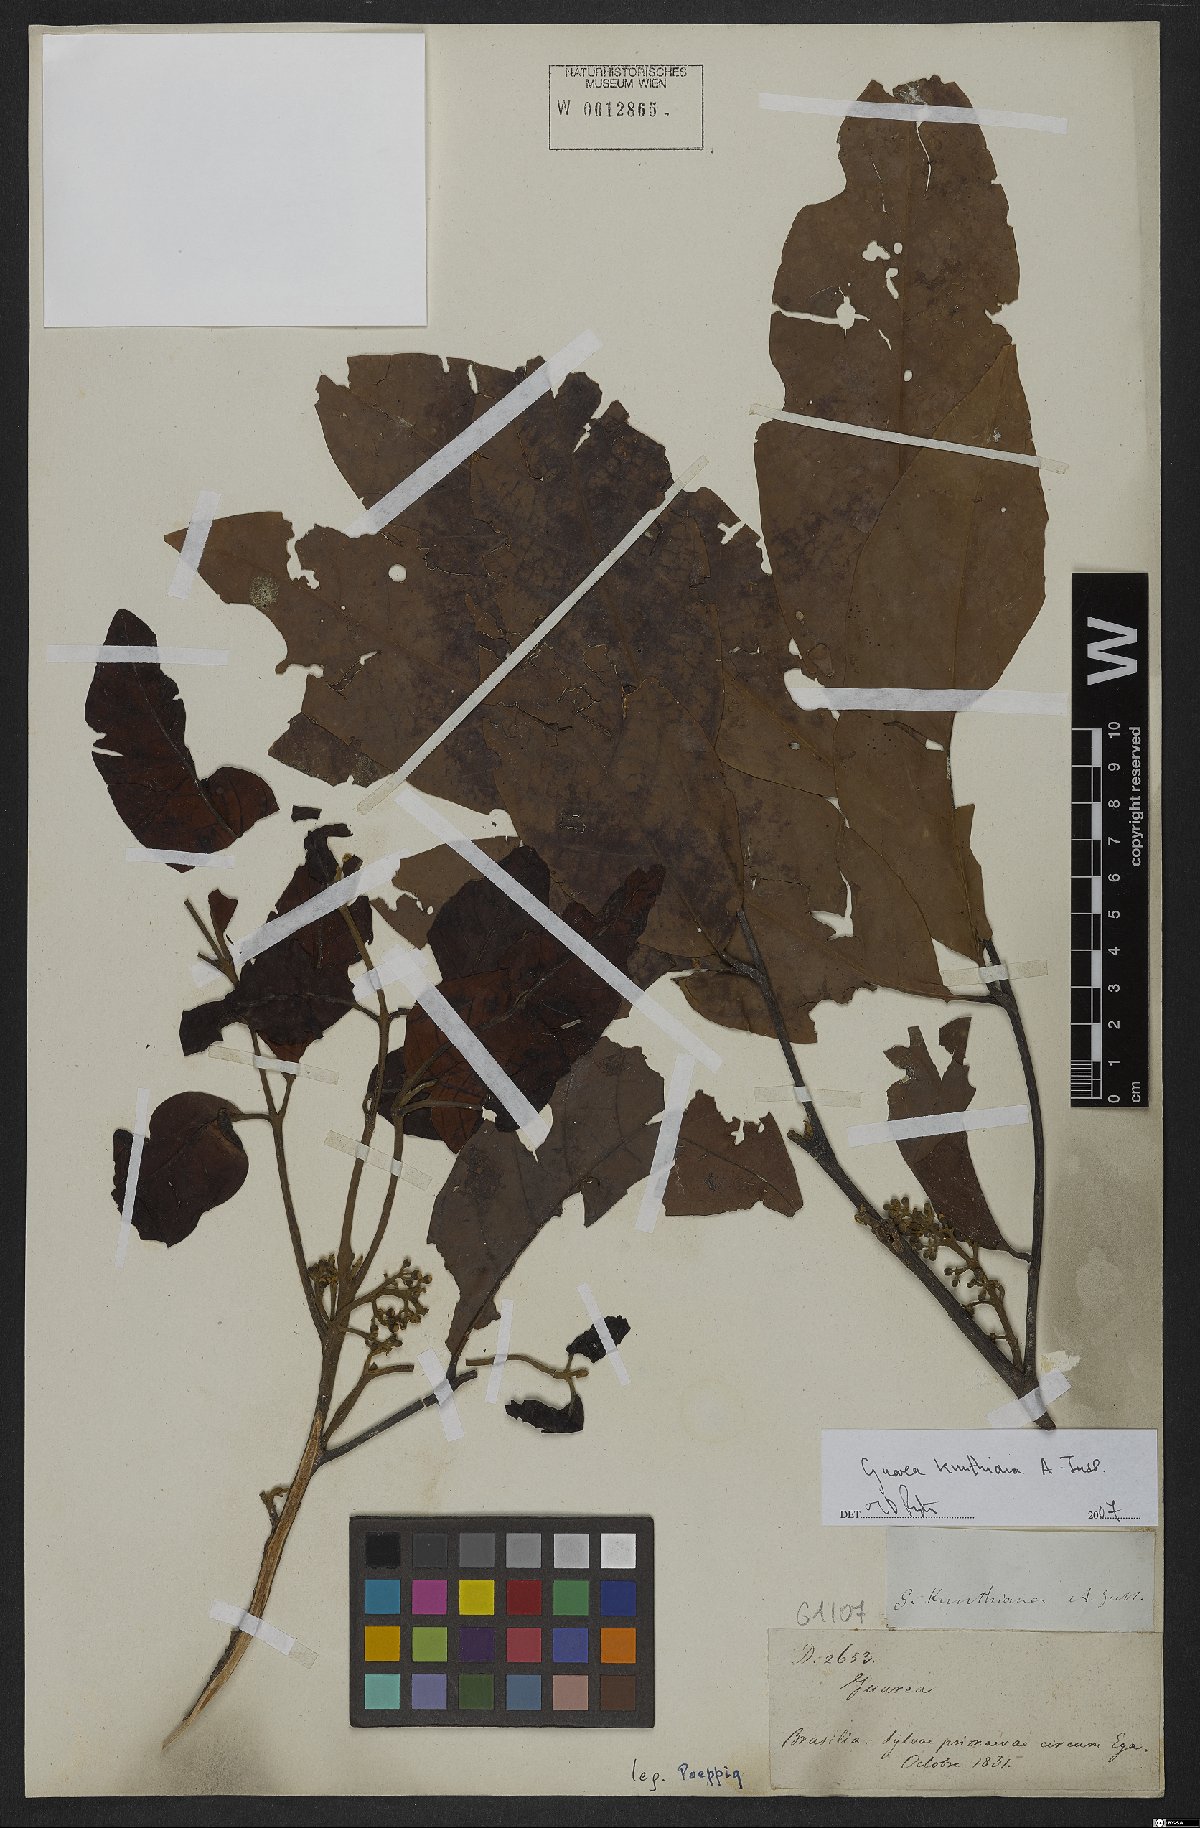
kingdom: Plantae
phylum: Tracheophyta
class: Magnoliopsida
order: Sapindales
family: Meliaceae
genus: Guarea
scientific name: Guarea kunthiana
